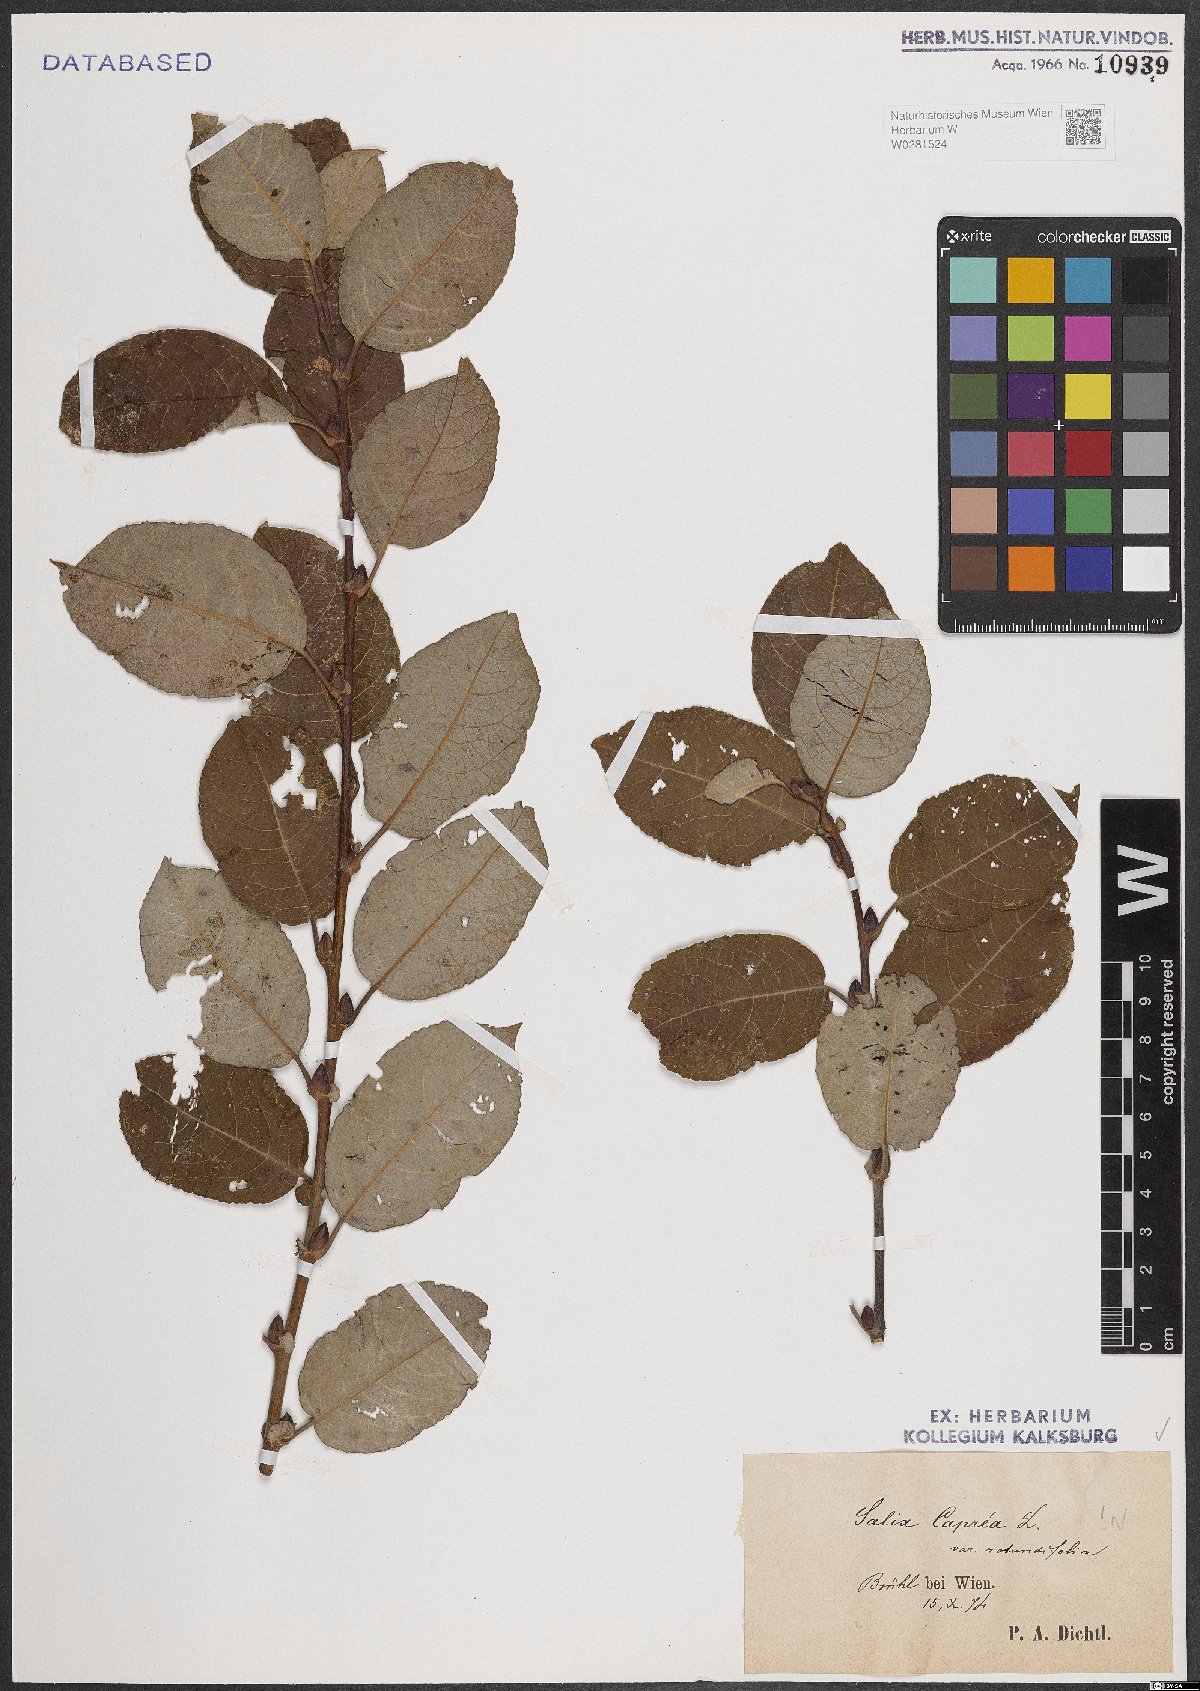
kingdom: Plantae
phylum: Tracheophyta
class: Magnoliopsida
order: Malpighiales
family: Salicaceae
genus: Salix
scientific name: Salix caprea
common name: Goat willow
